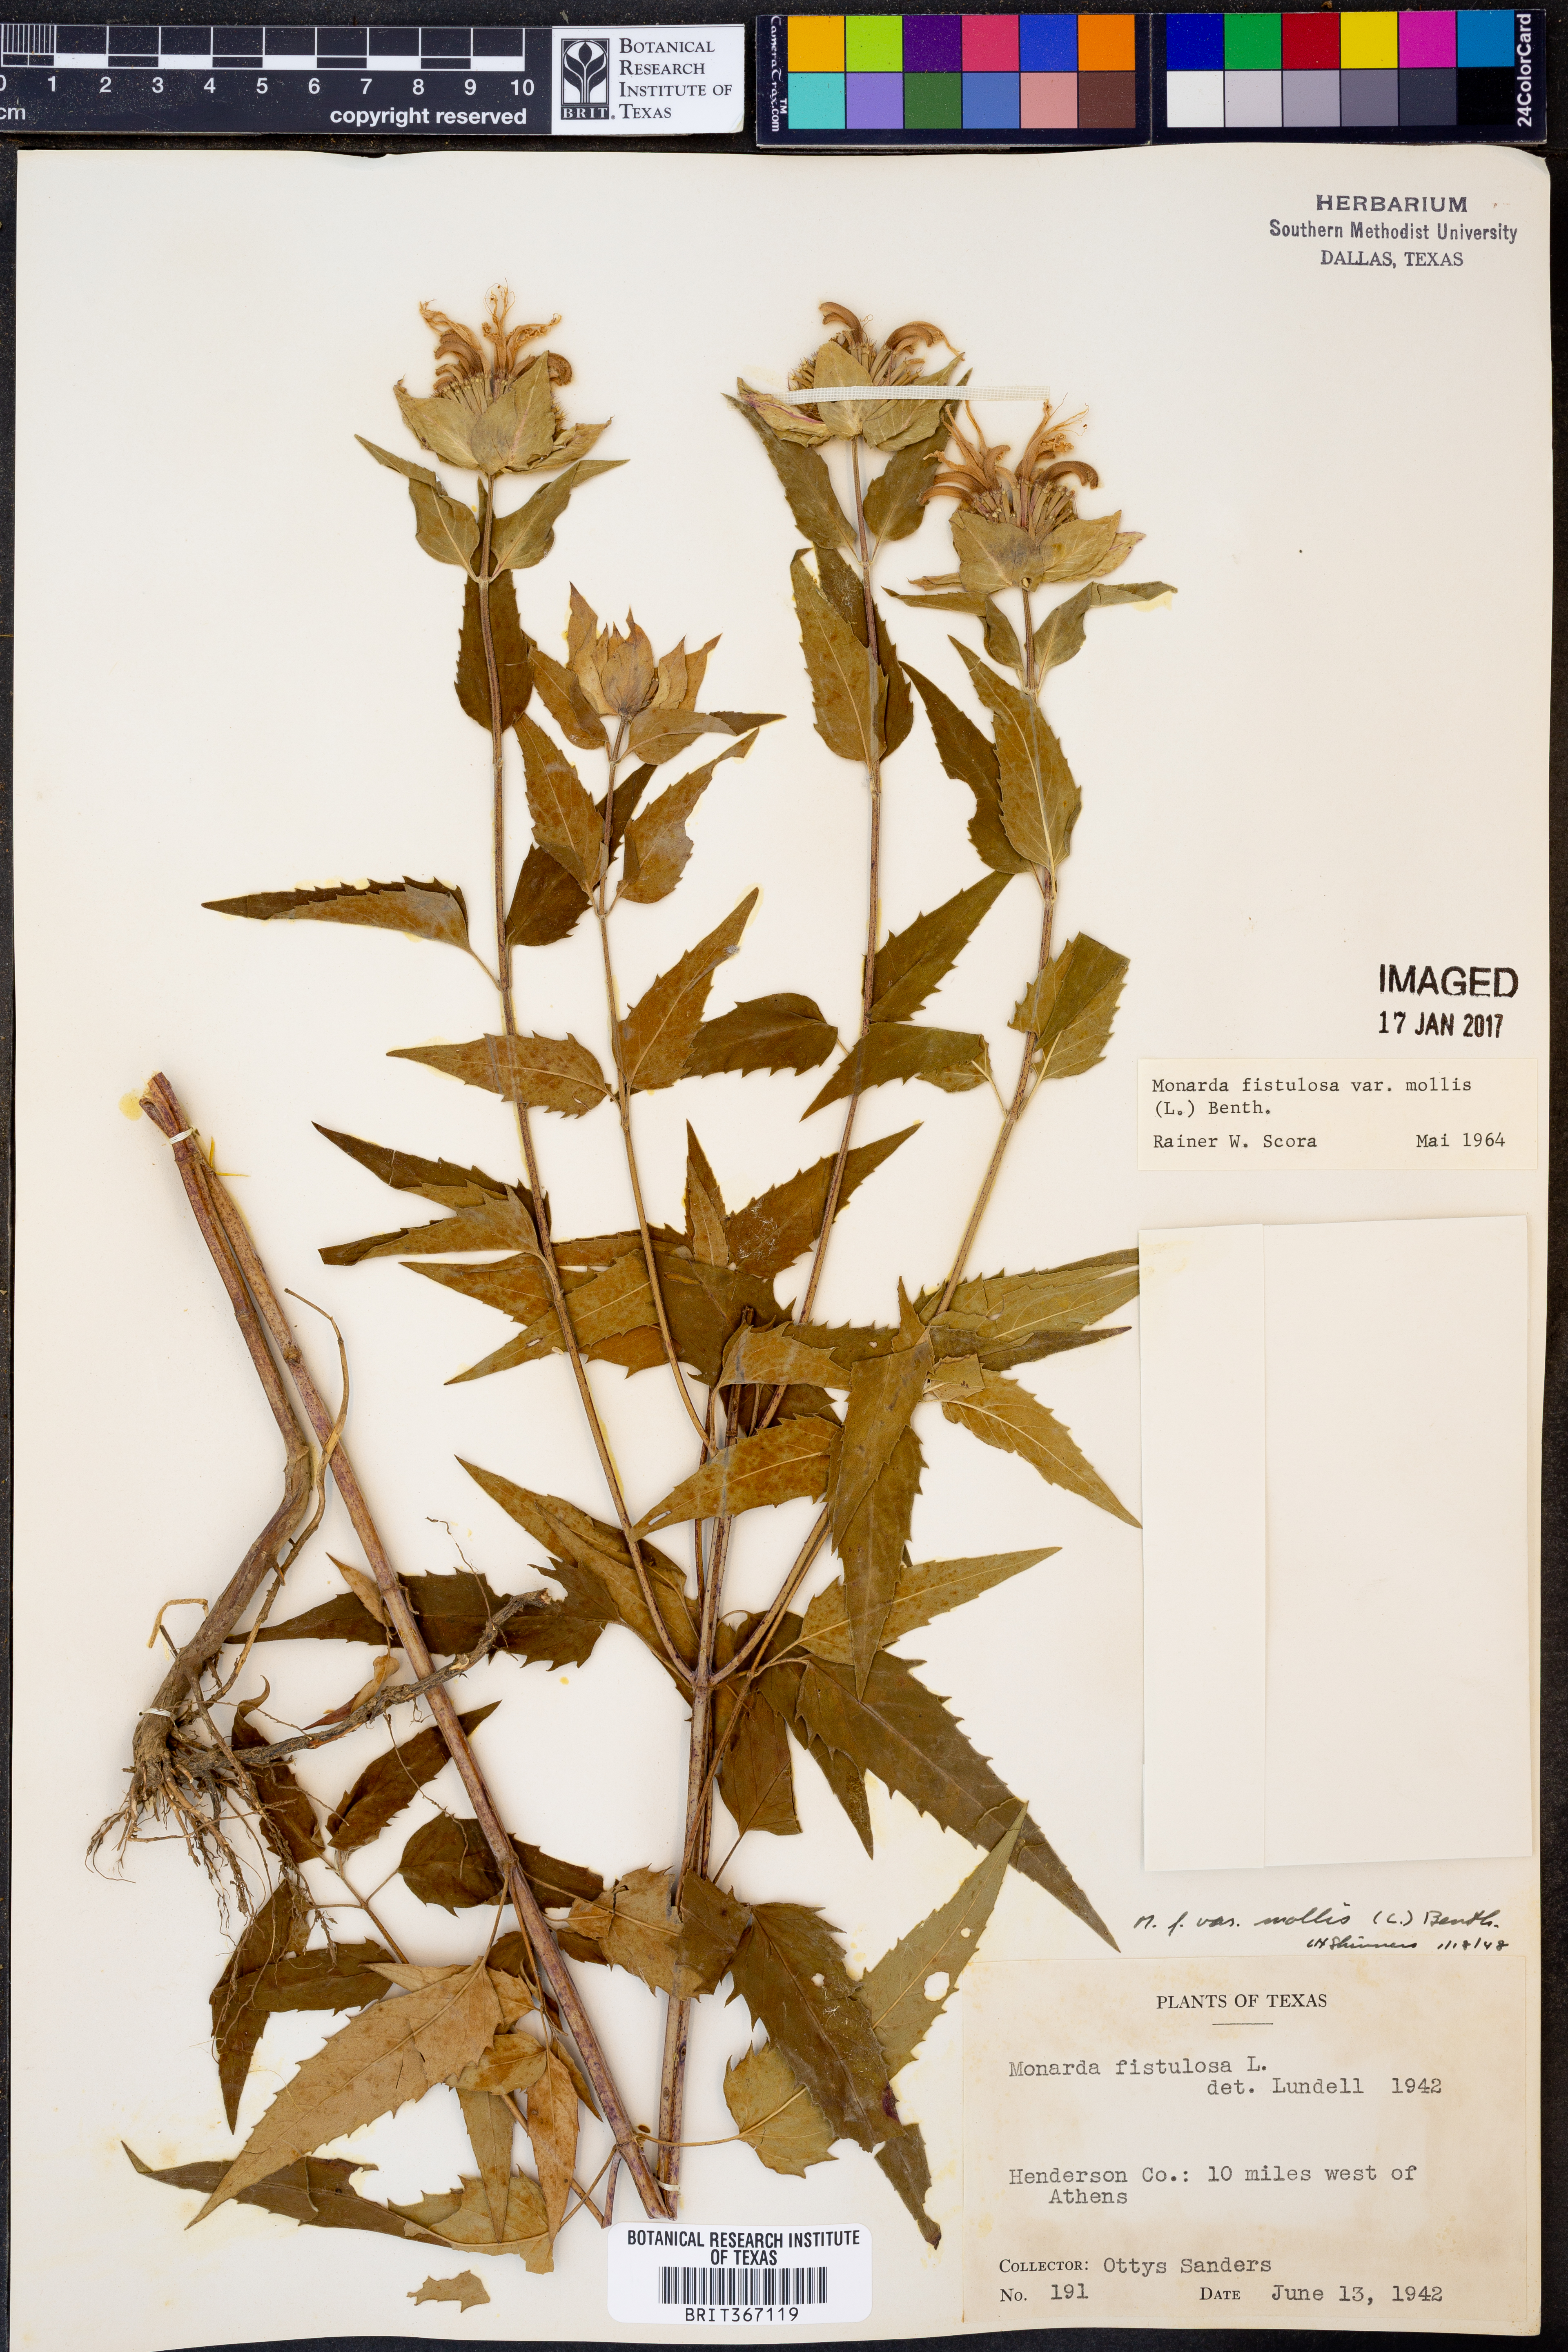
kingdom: Plantae
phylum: Tracheophyta
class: Magnoliopsida
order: Lamiales
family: Lamiaceae
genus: Monarda
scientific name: Monarda fistulosa
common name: Purple beebalm
